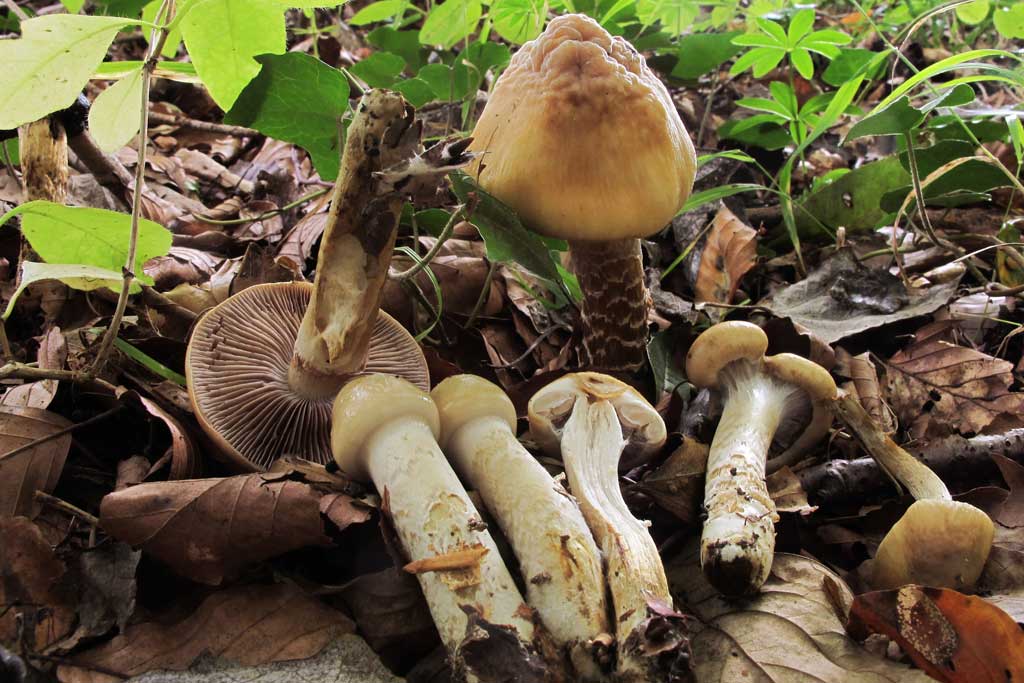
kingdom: Fungi
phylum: Basidiomycota
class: Agaricomycetes
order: Agaricales
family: Cortinariaceae
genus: Cortinarius
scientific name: Cortinarius trivialis
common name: brunslimet slørhat
